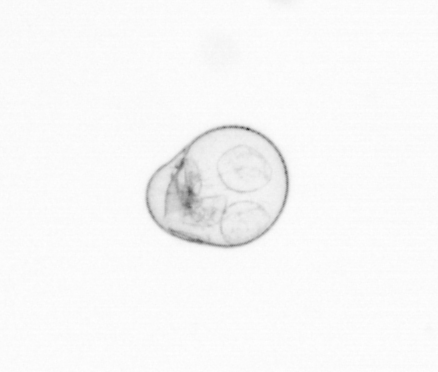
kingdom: Chromista
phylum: Myzozoa
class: Dinophyceae
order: Noctilucales
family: Noctilucaceae
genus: Noctiluca
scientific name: Noctiluca scintillans
